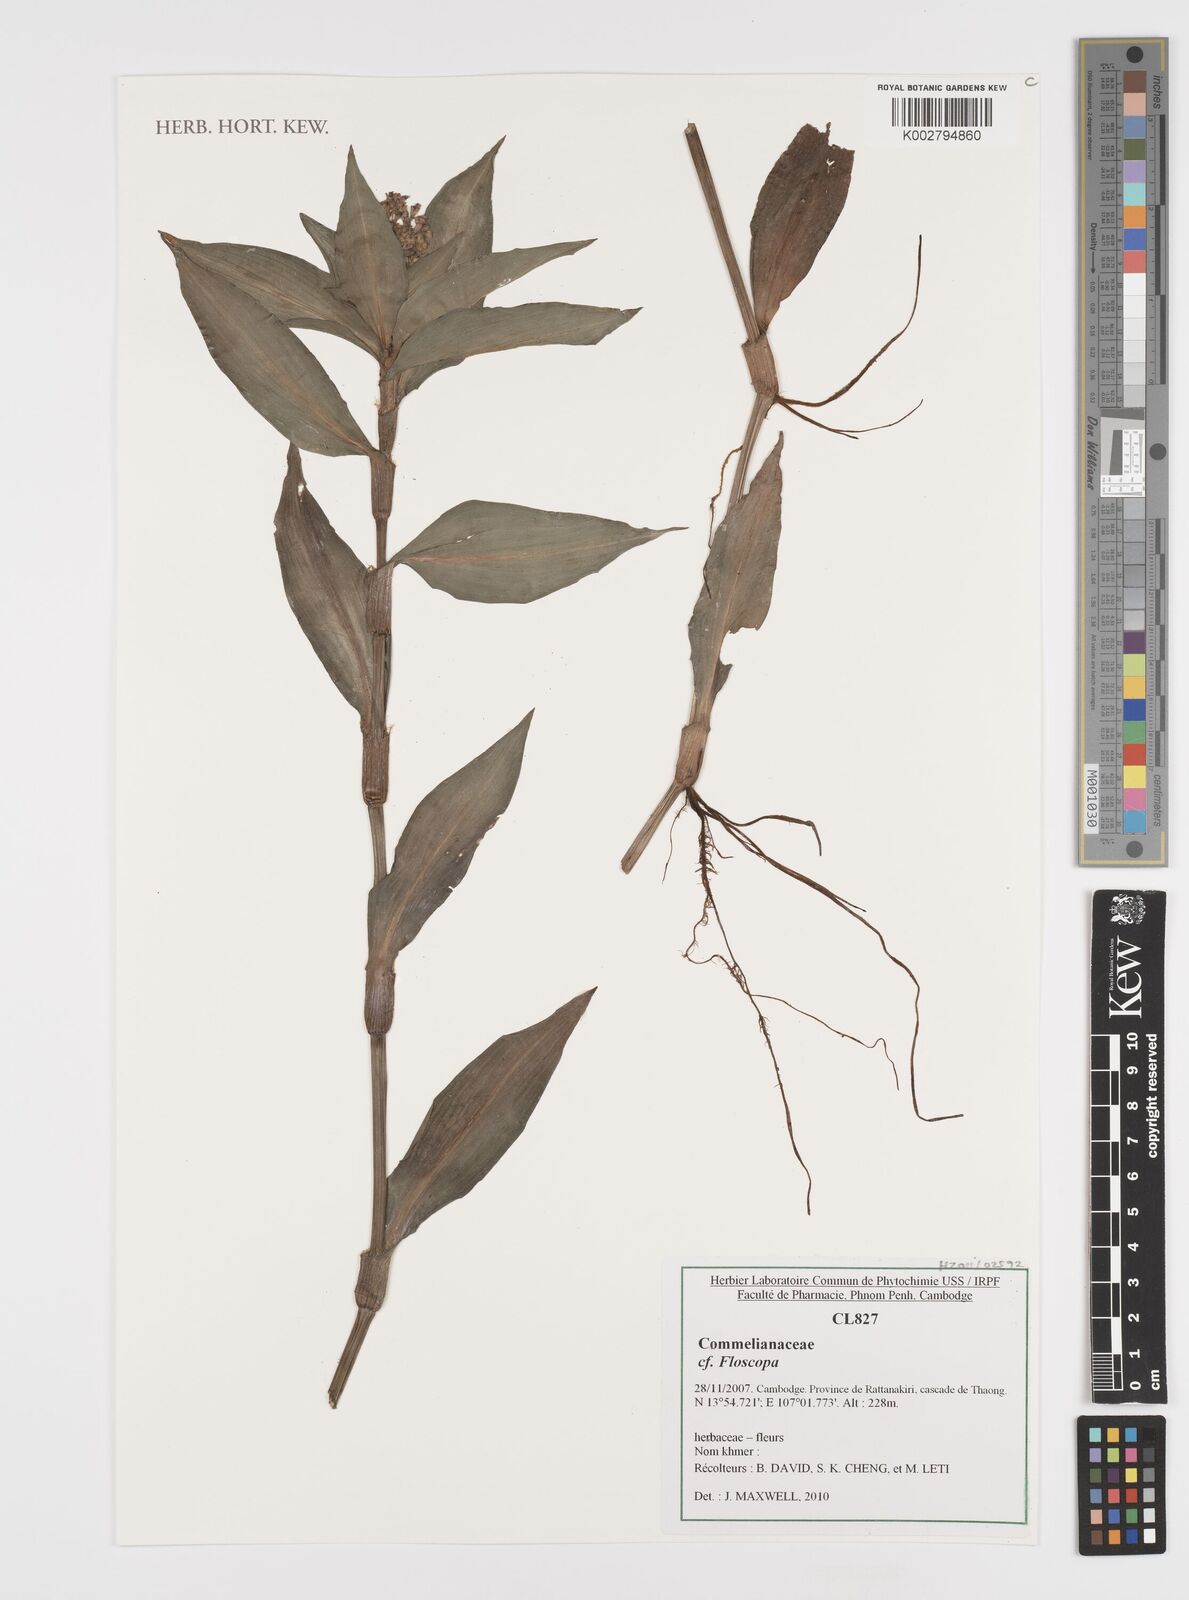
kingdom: Plantae
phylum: Tracheophyta
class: Liliopsida
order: Commelinales
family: Commelinaceae
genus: Floscopa
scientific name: Floscopa
